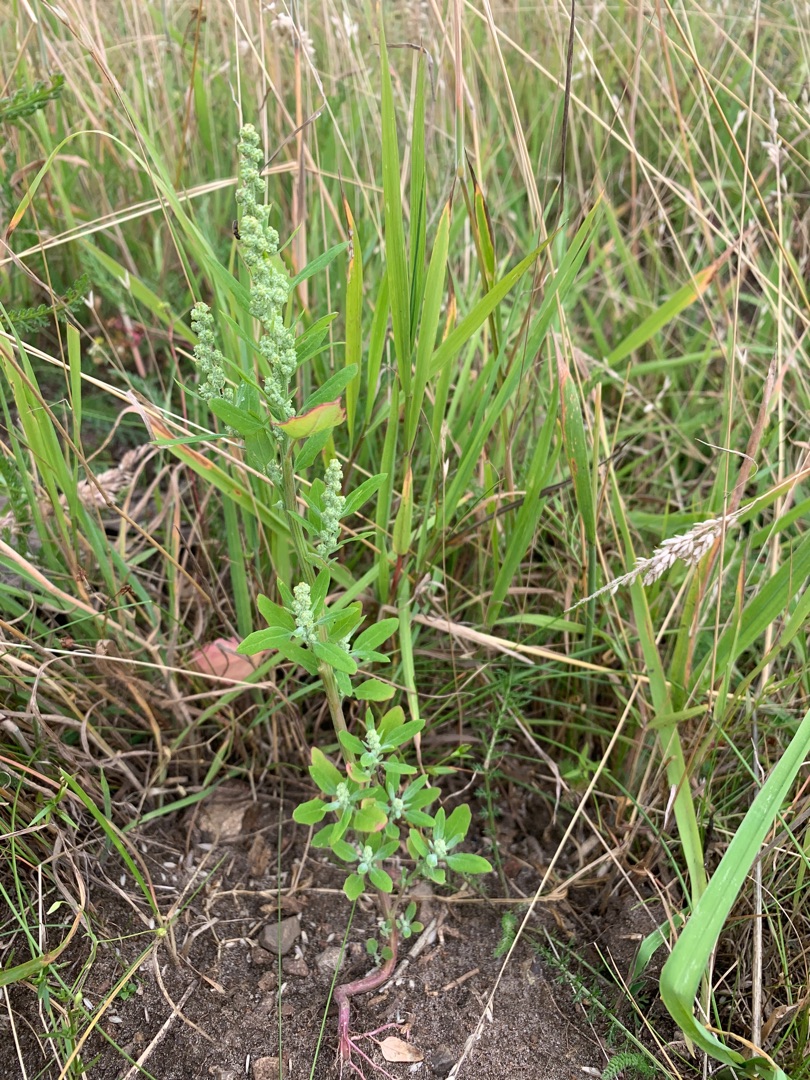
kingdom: Plantae
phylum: Tracheophyta
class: Magnoliopsida
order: Caryophyllales
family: Amaranthaceae
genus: Chenopodium
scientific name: Chenopodium album
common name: Hvidmelet gåsefod
